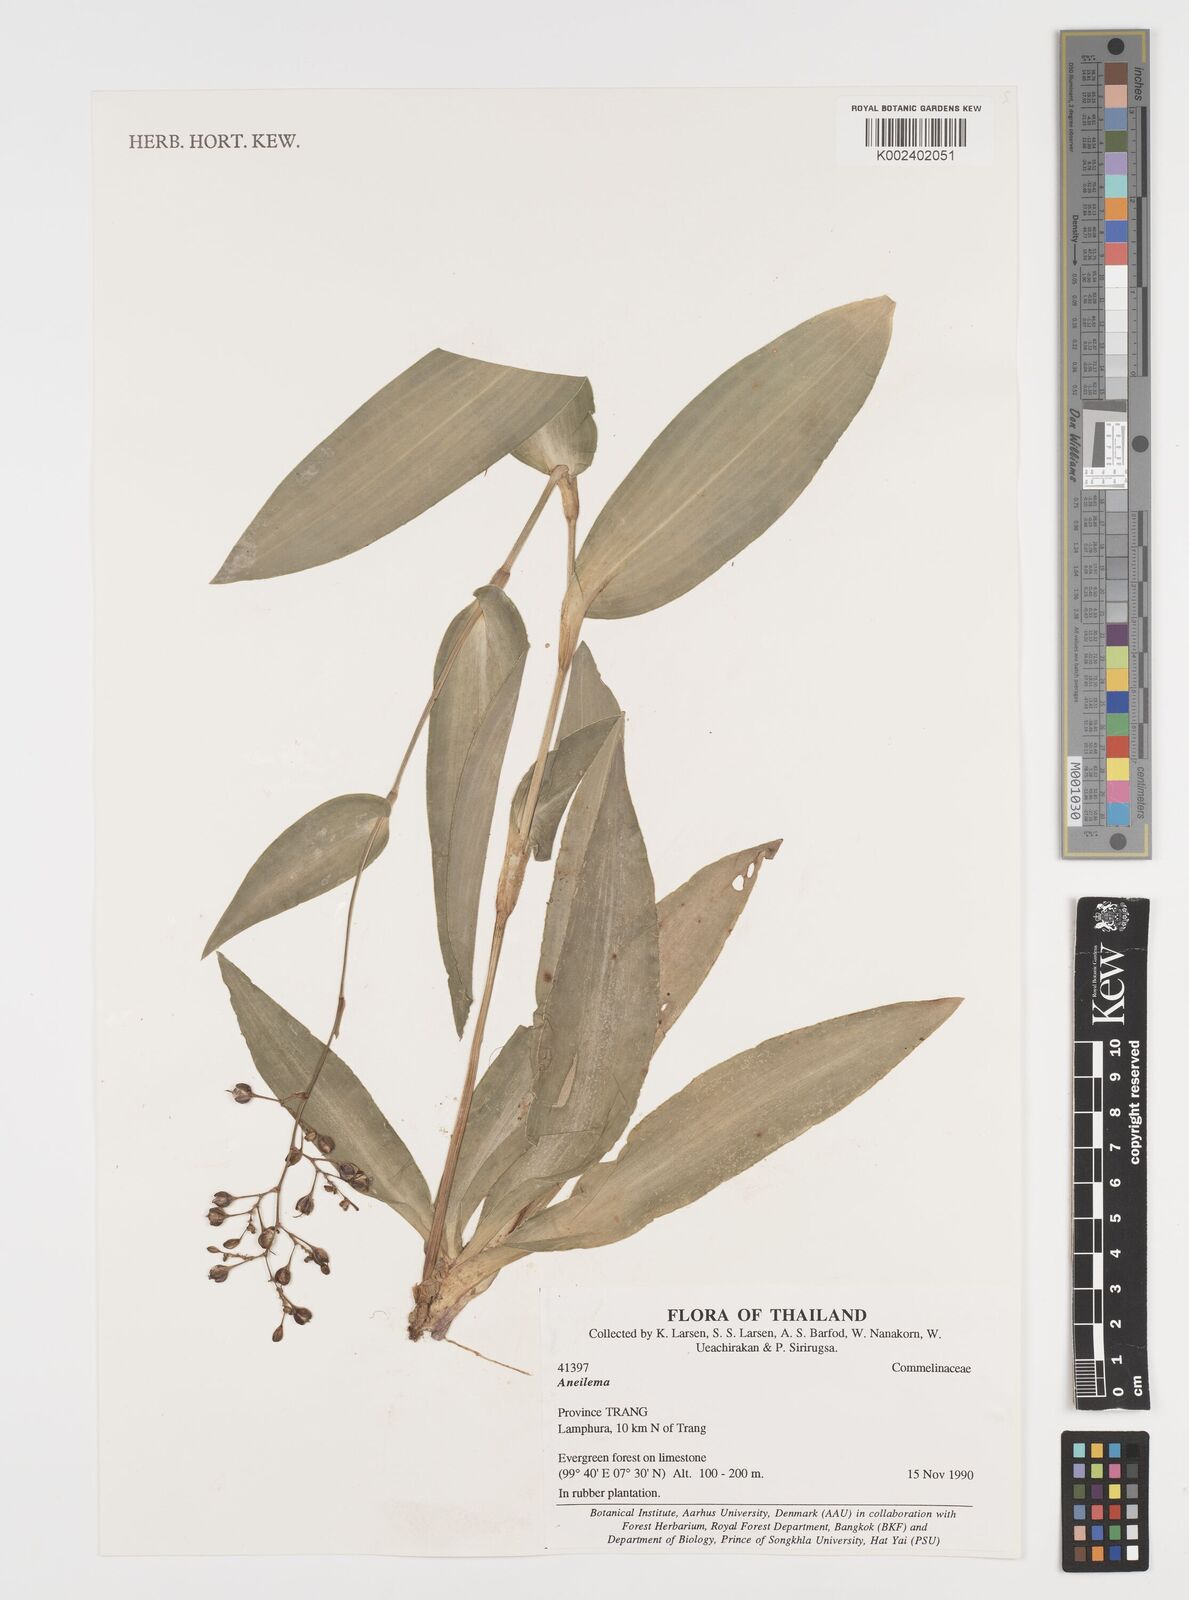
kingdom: Plantae
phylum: Tracheophyta
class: Liliopsida
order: Commelinales
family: Commelinaceae
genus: Aneilema
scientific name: Aneilema
